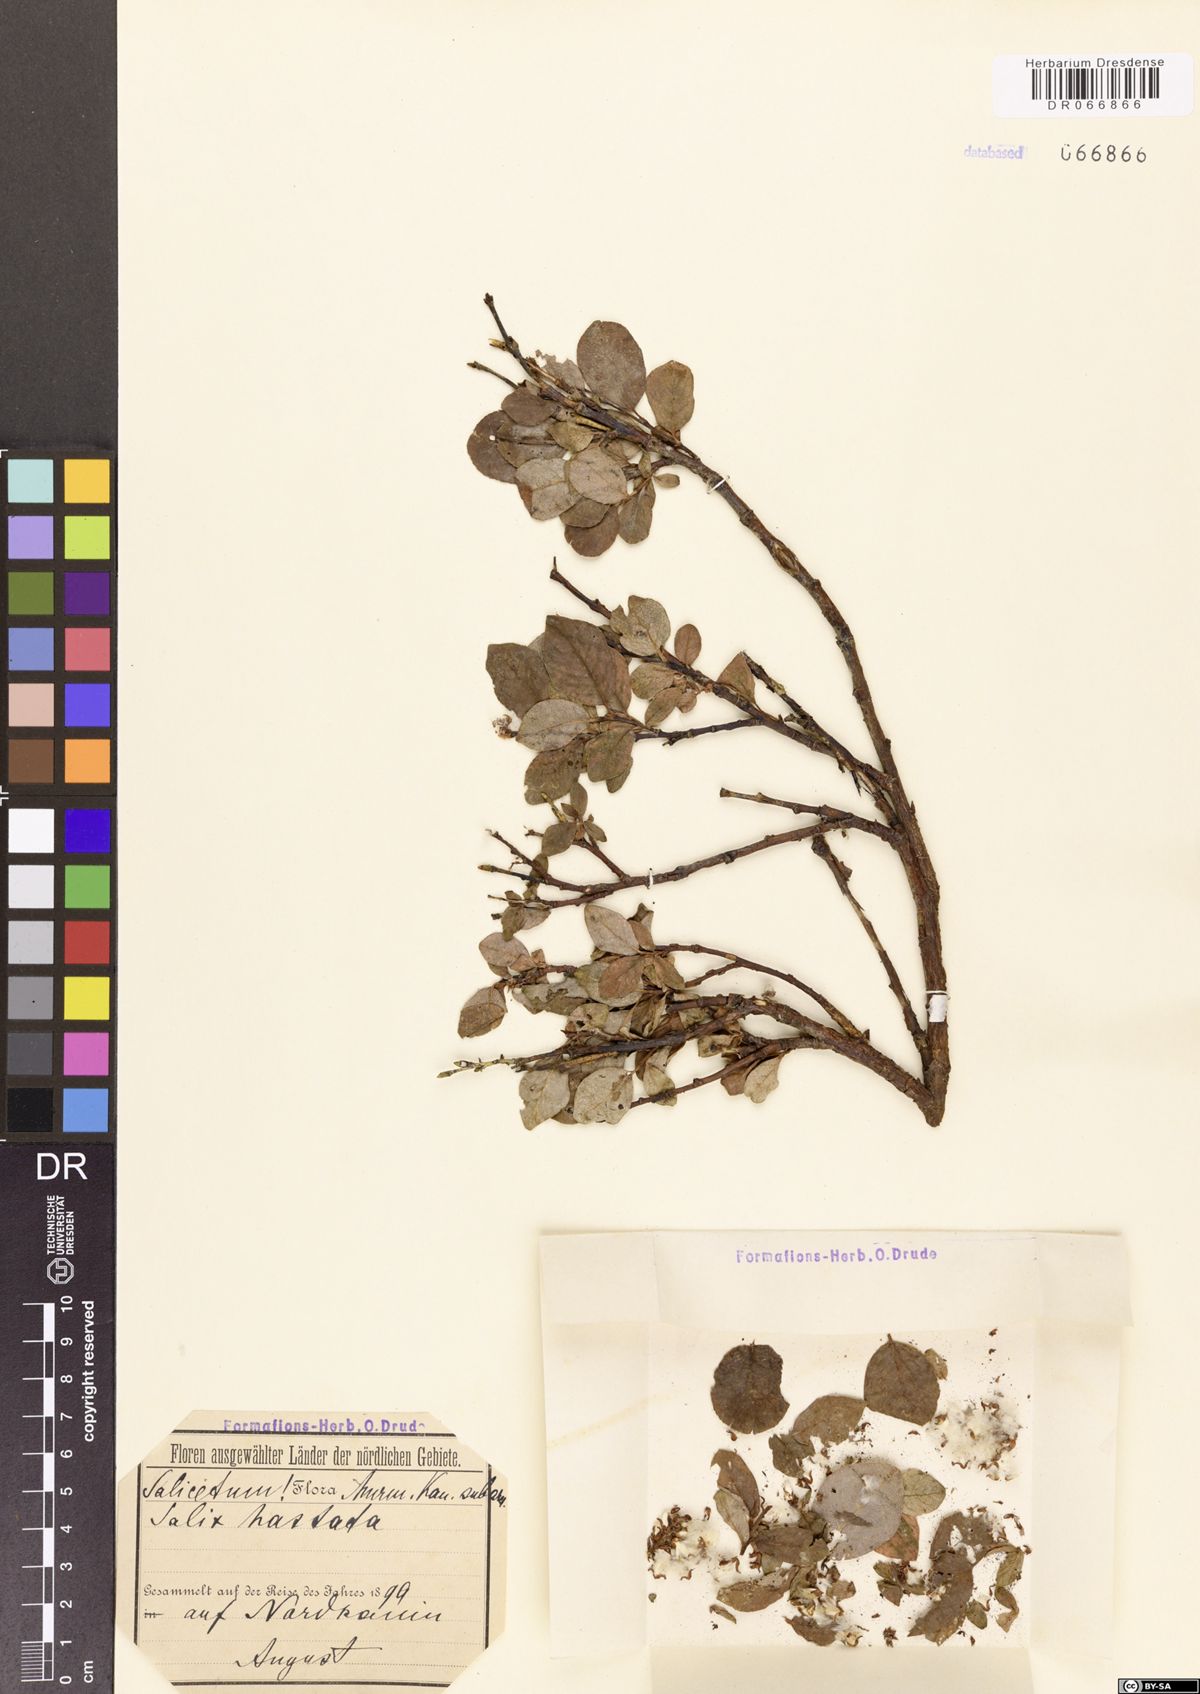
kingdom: Plantae
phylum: Tracheophyta
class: Magnoliopsida
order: Malpighiales
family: Salicaceae
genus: Salix
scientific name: Salix hastata
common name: Halberd willow
